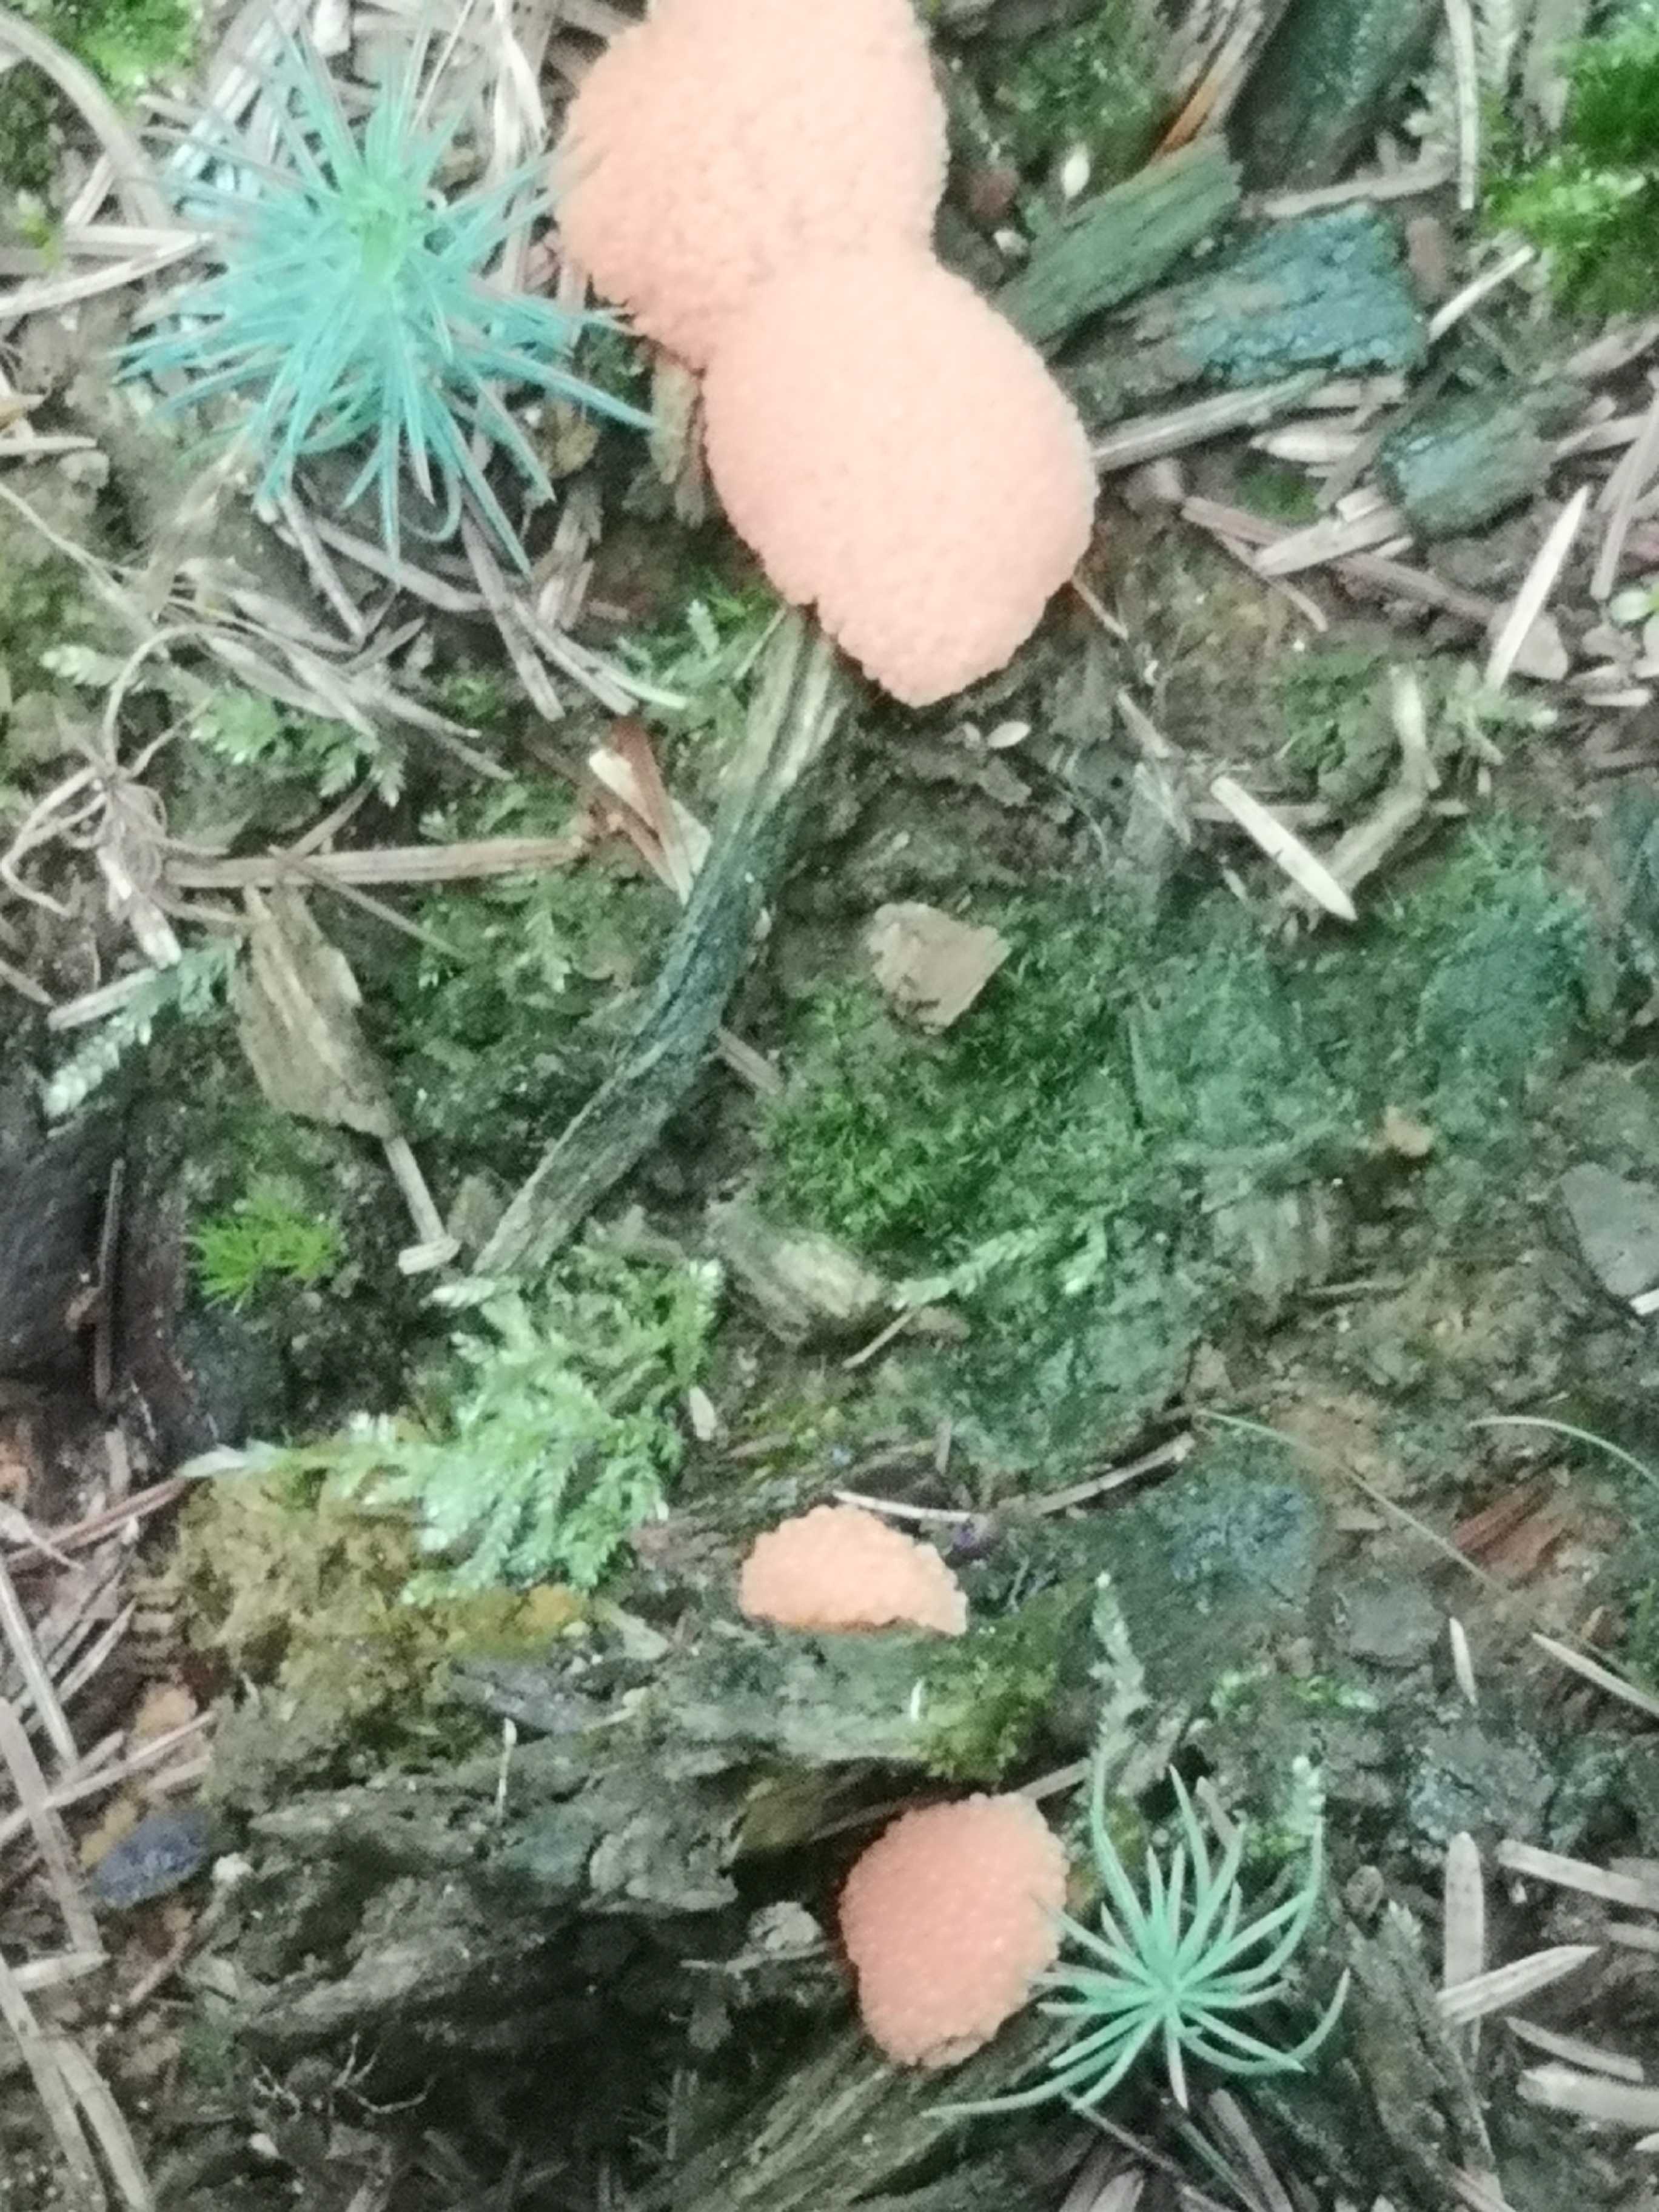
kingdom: Protozoa
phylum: Mycetozoa
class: Myxomycetes
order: Cribrariales
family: Tubiferaceae
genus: Tubifera
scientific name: Tubifera ferruginosa
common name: kanel-støvrør
